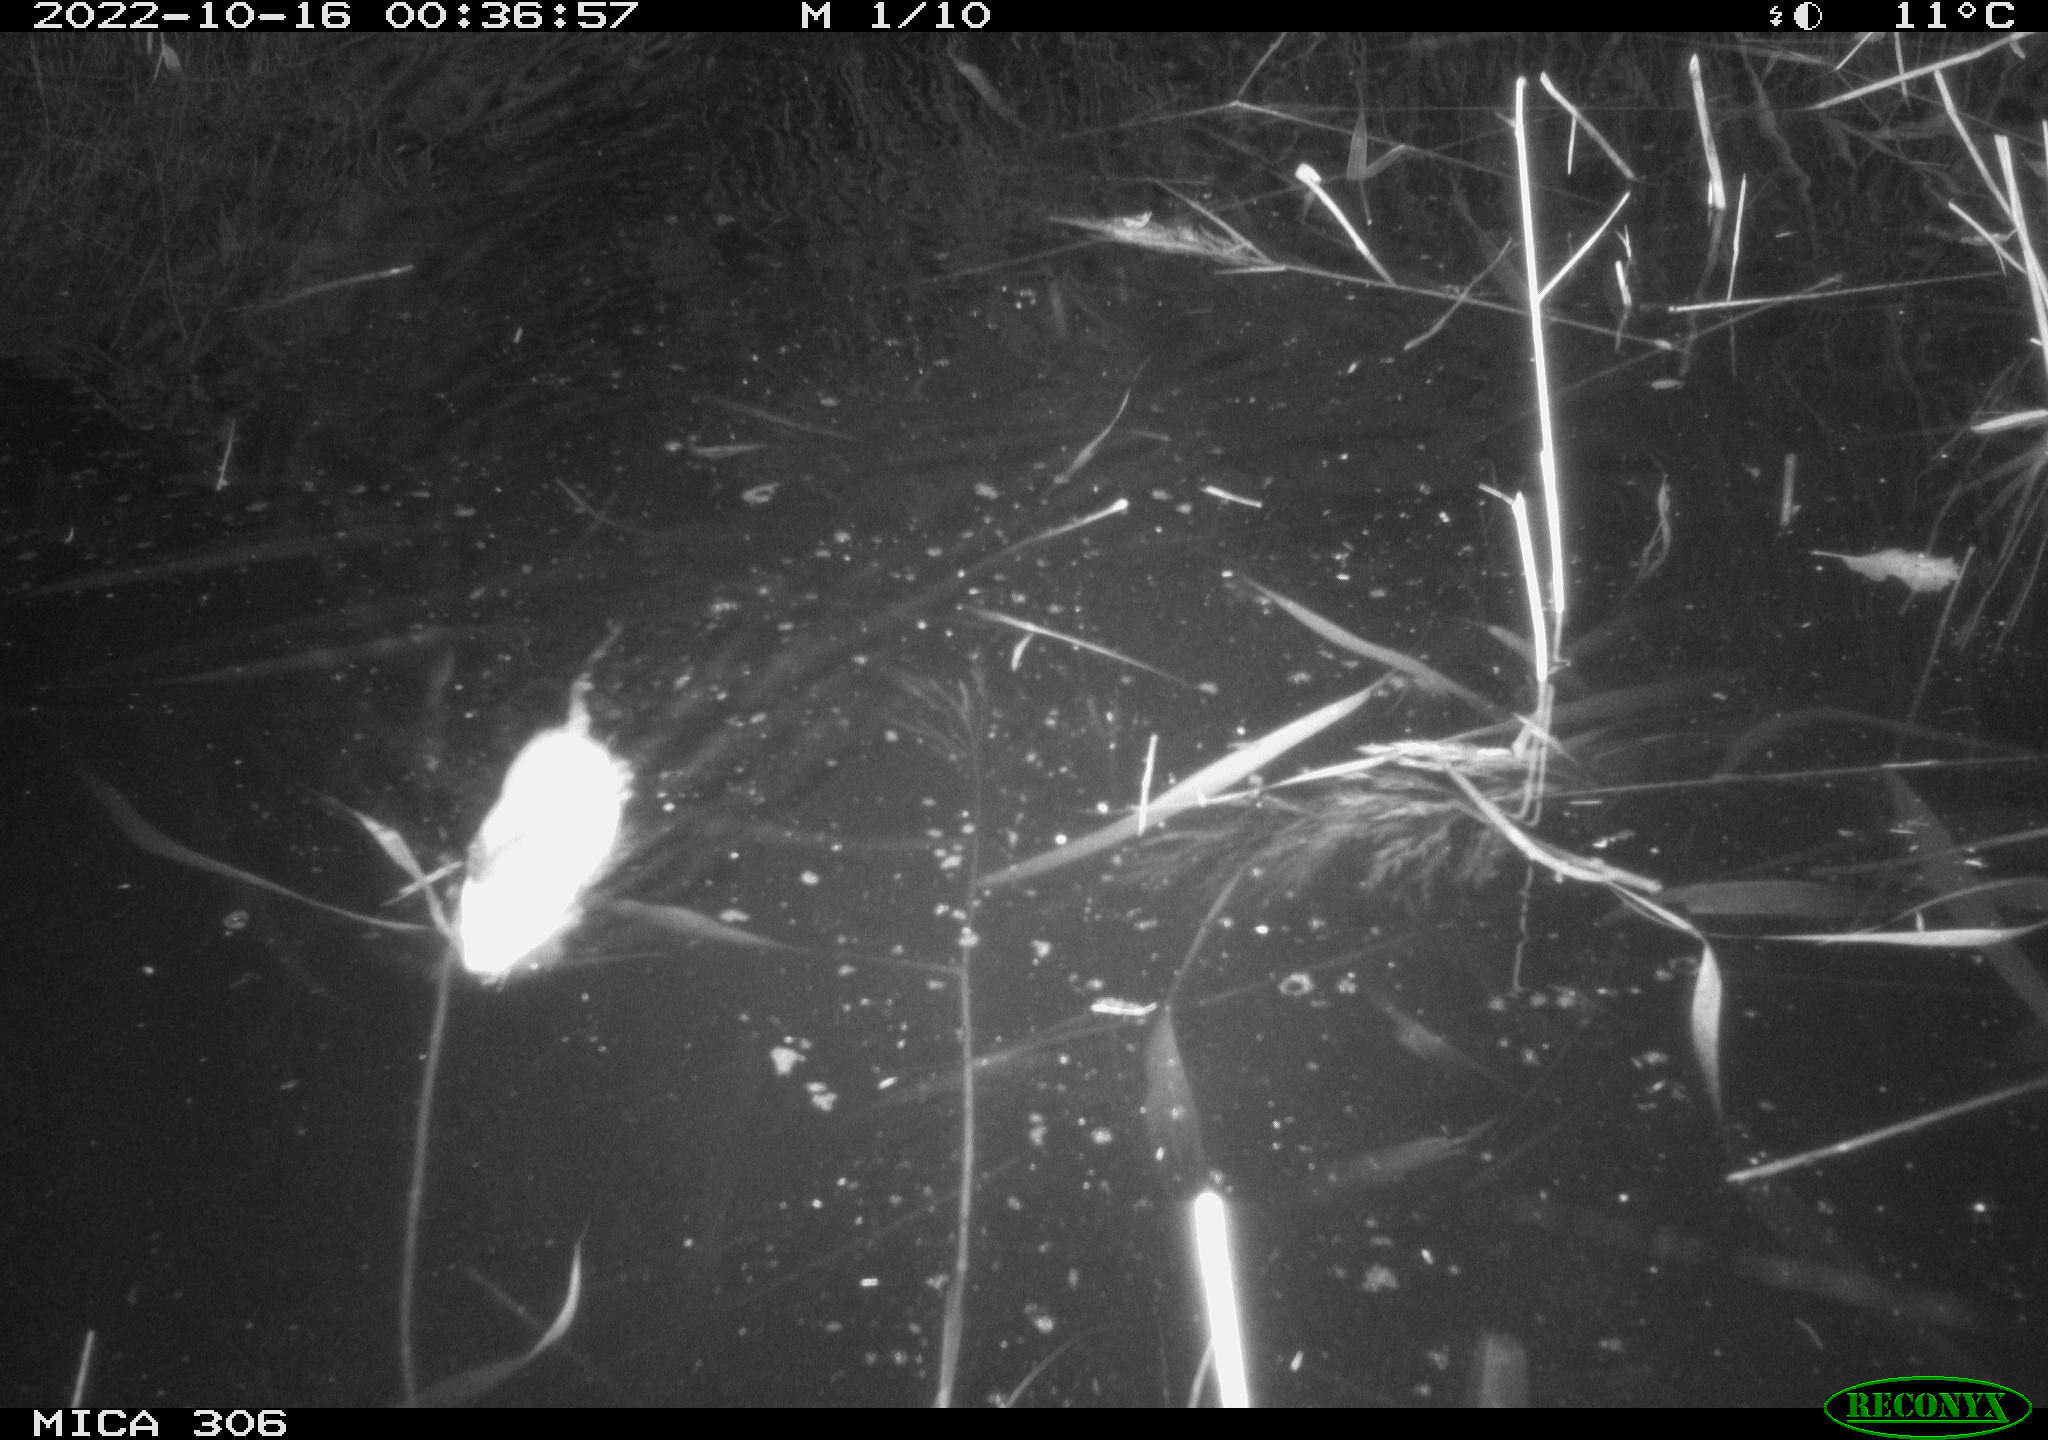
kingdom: Animalia
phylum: Chordata
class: Mammalia
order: Rodentia
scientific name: Rodentia
